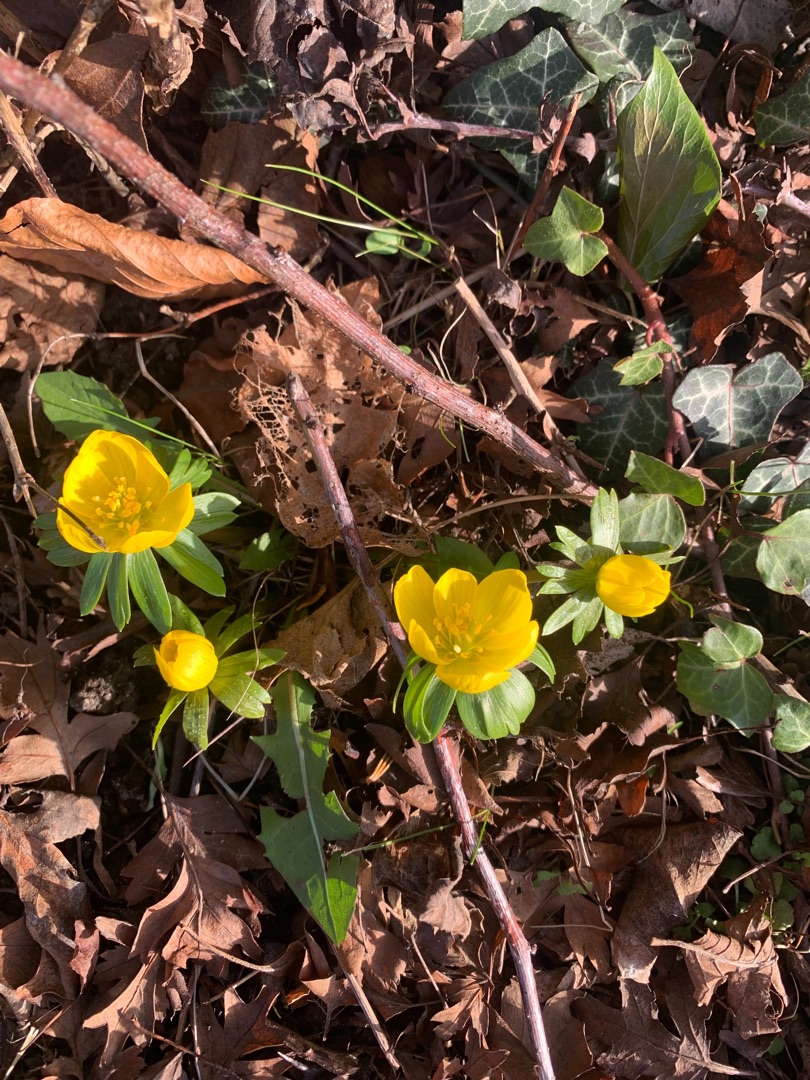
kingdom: Plantae
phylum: Tracheophyta
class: Magnoliopsida
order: Ranunculales
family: Ranunculaceae
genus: Eranthis
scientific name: Eranthis hyemalis
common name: Erantis
